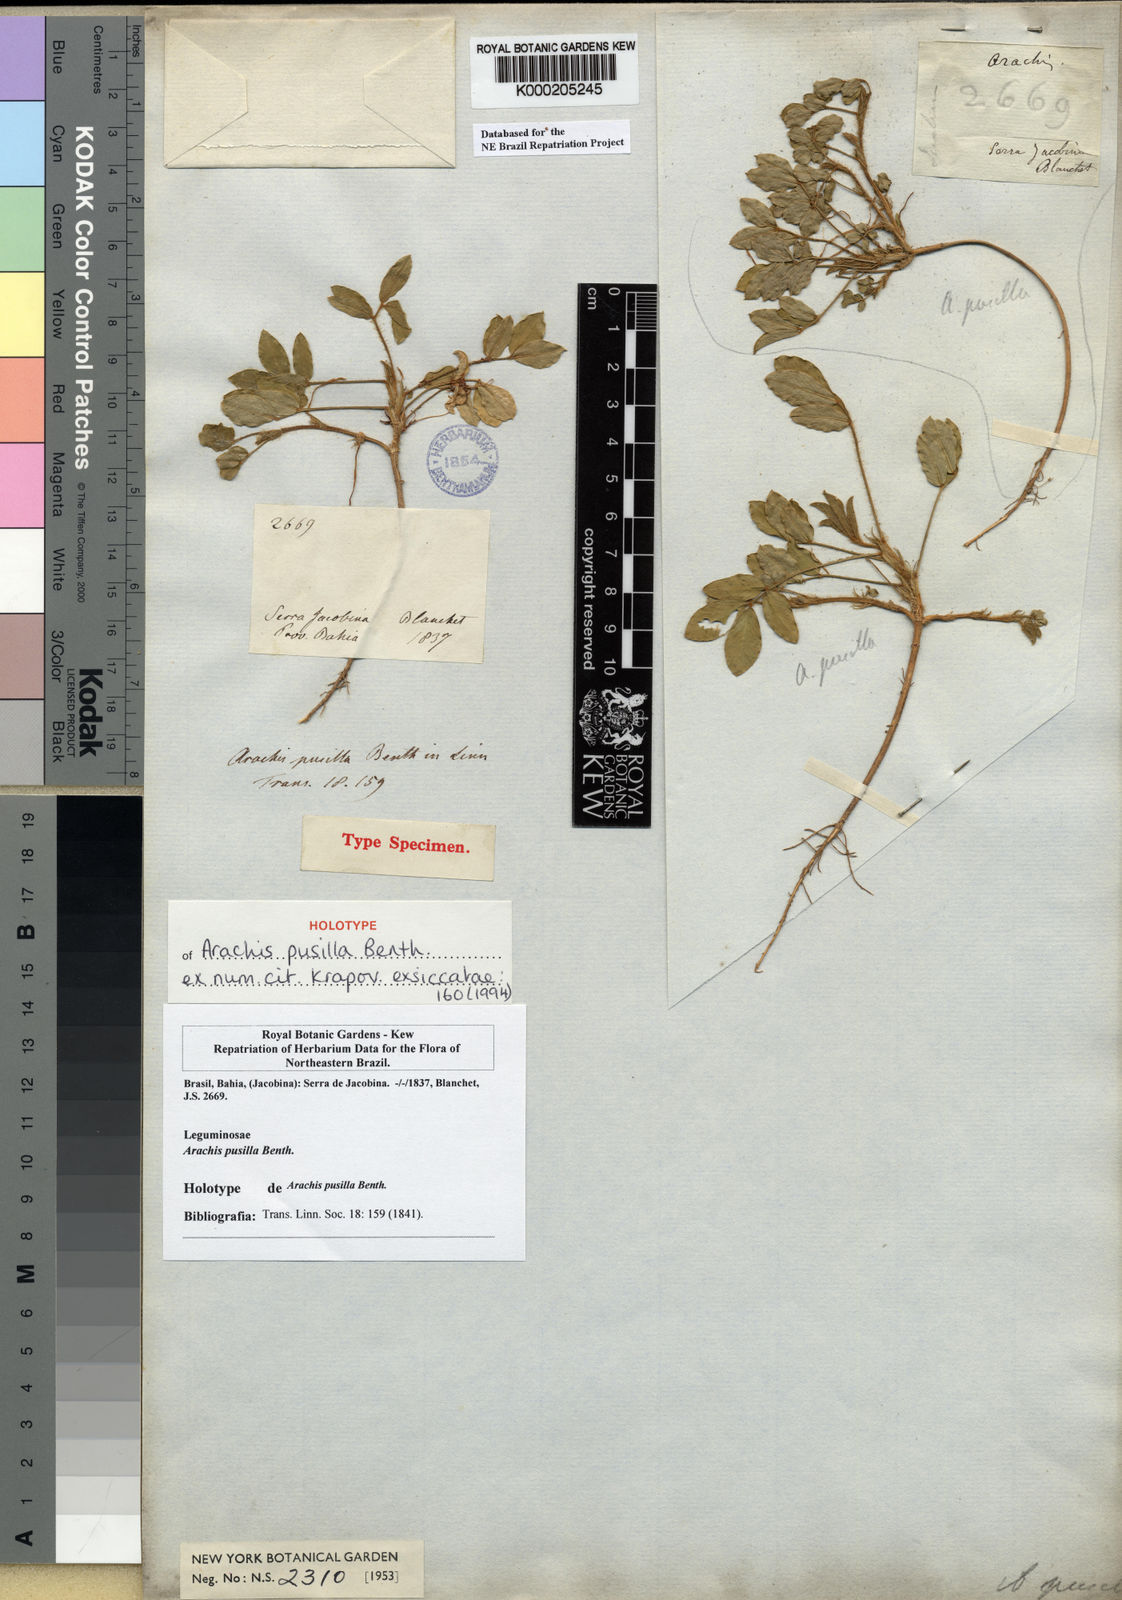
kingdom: Plantae
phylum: Tracheophyta
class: Magnoliopsida
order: Fabales
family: Fabaceae
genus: Arachis
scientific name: Arachis pusilla
